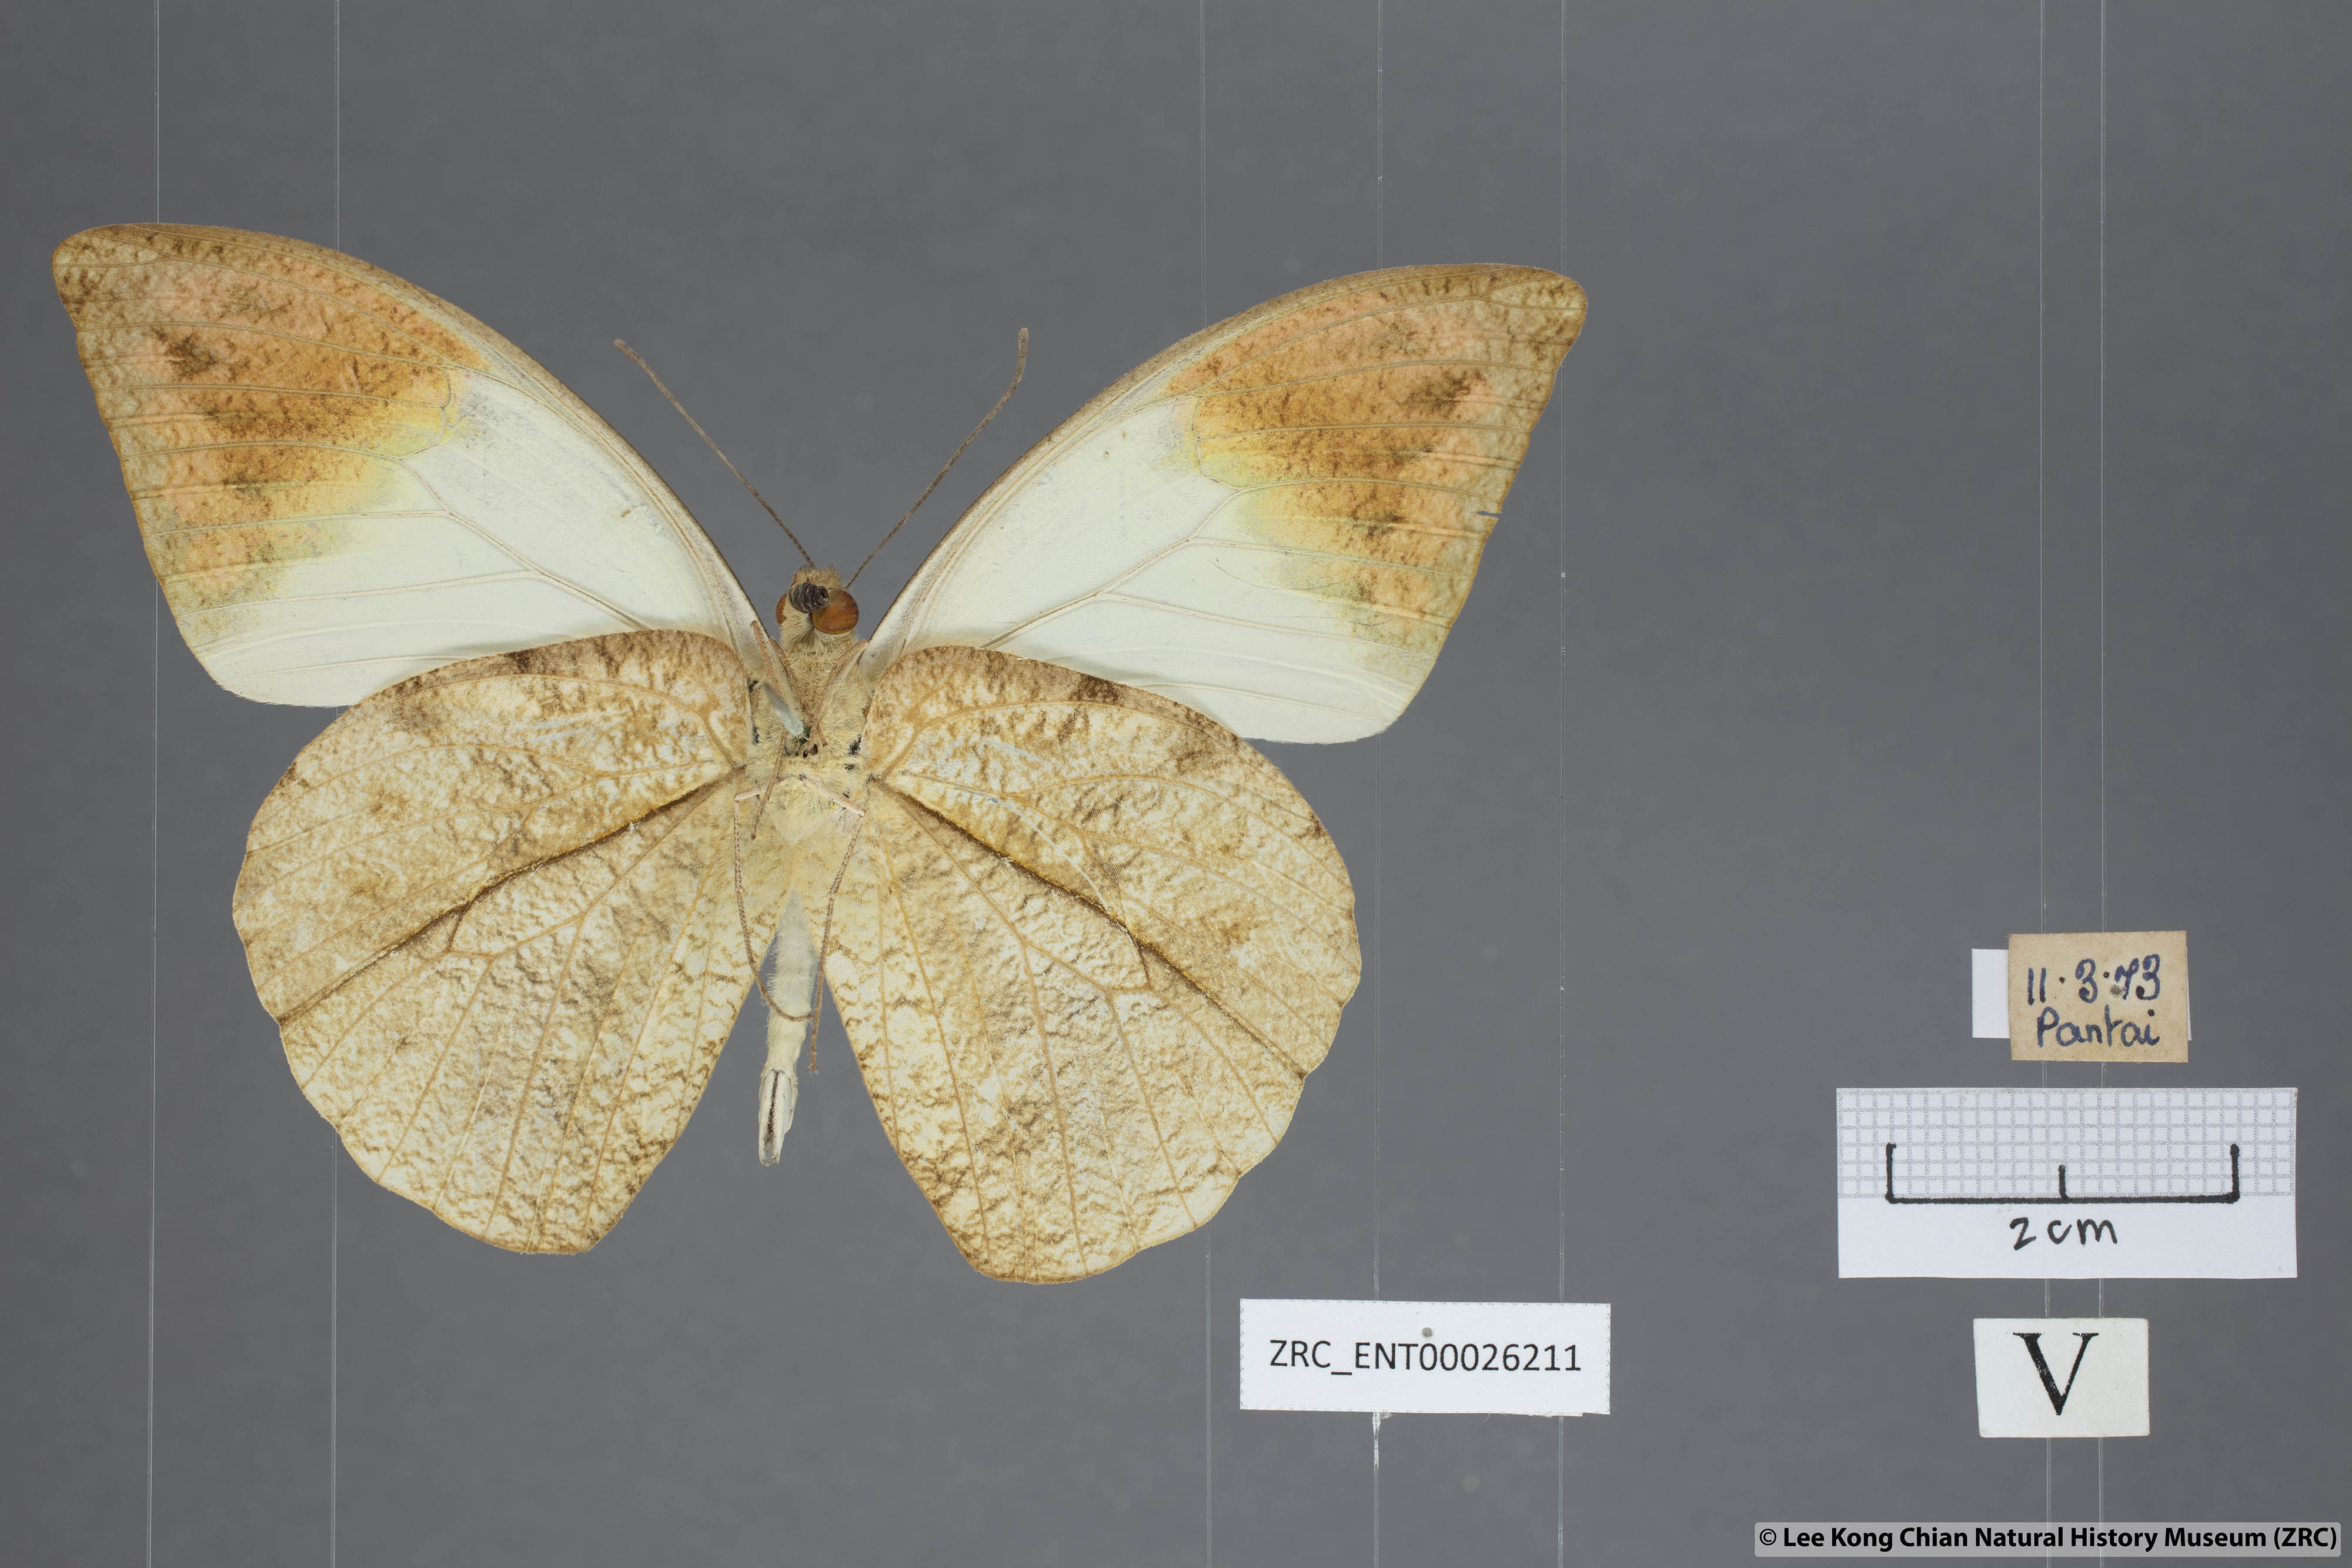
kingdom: Animalia
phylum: Arthropoda
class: Insecta
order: Lepidoptera
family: Pieridae
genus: Hebomoia
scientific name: Hebomoia glaucippe
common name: Great orange tip
